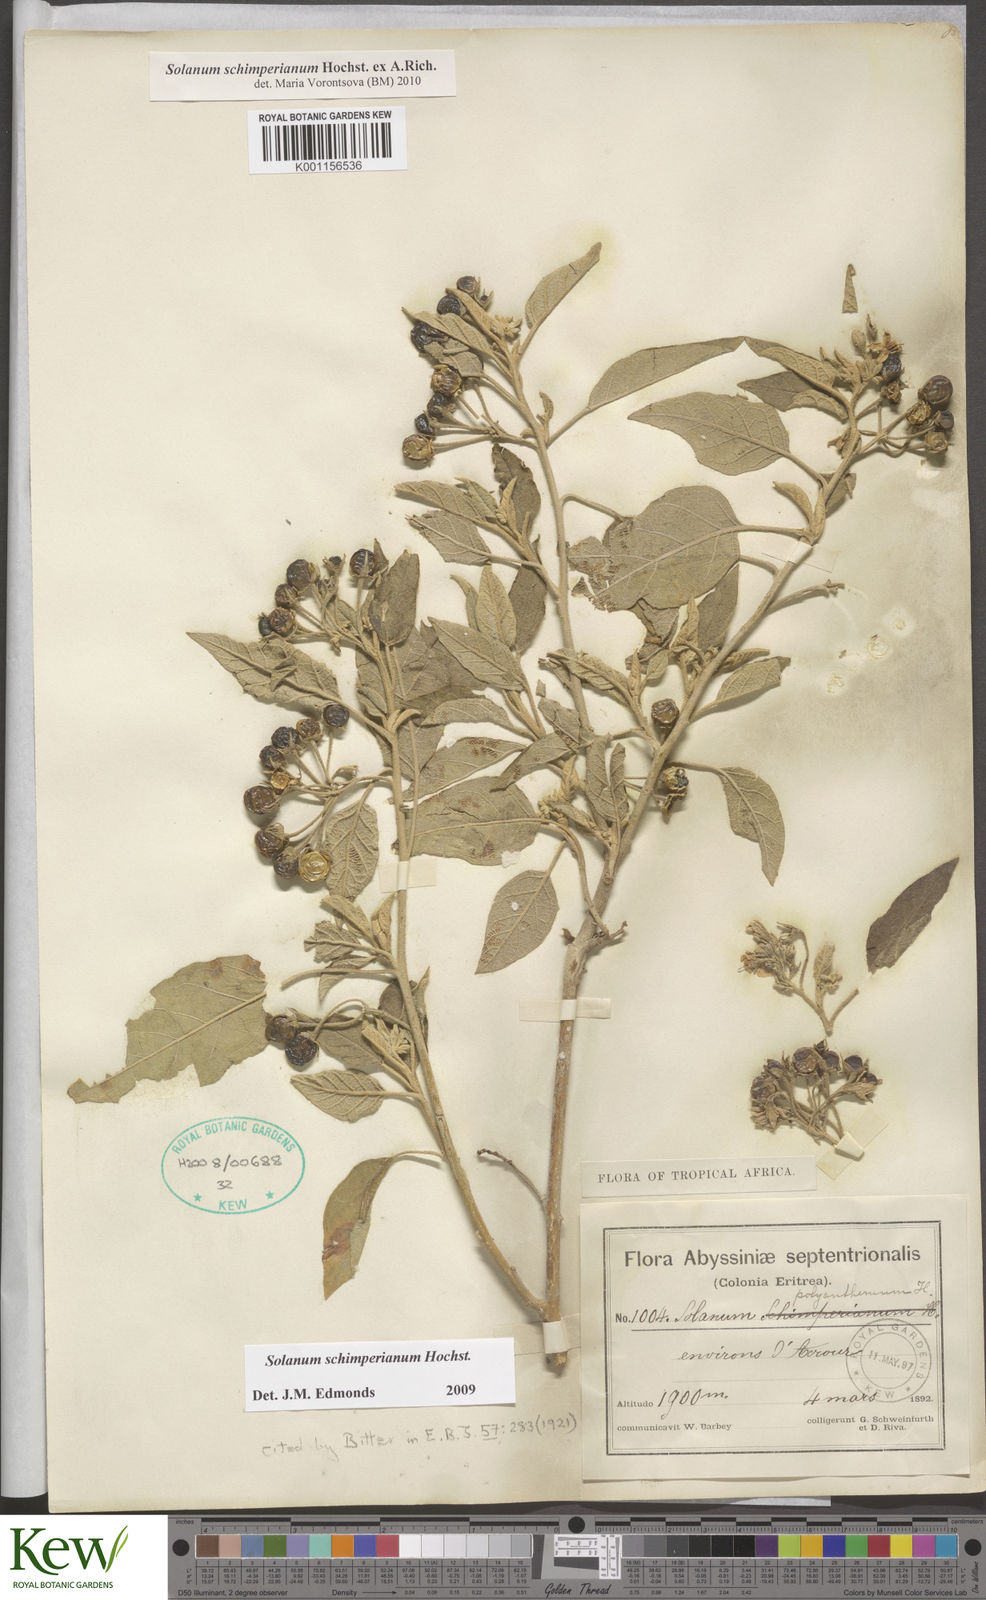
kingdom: Plantae
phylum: Tracheophyta
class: Magnoliopsida
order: Solanales
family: Solanaceae
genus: Solanum
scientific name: Solanum
